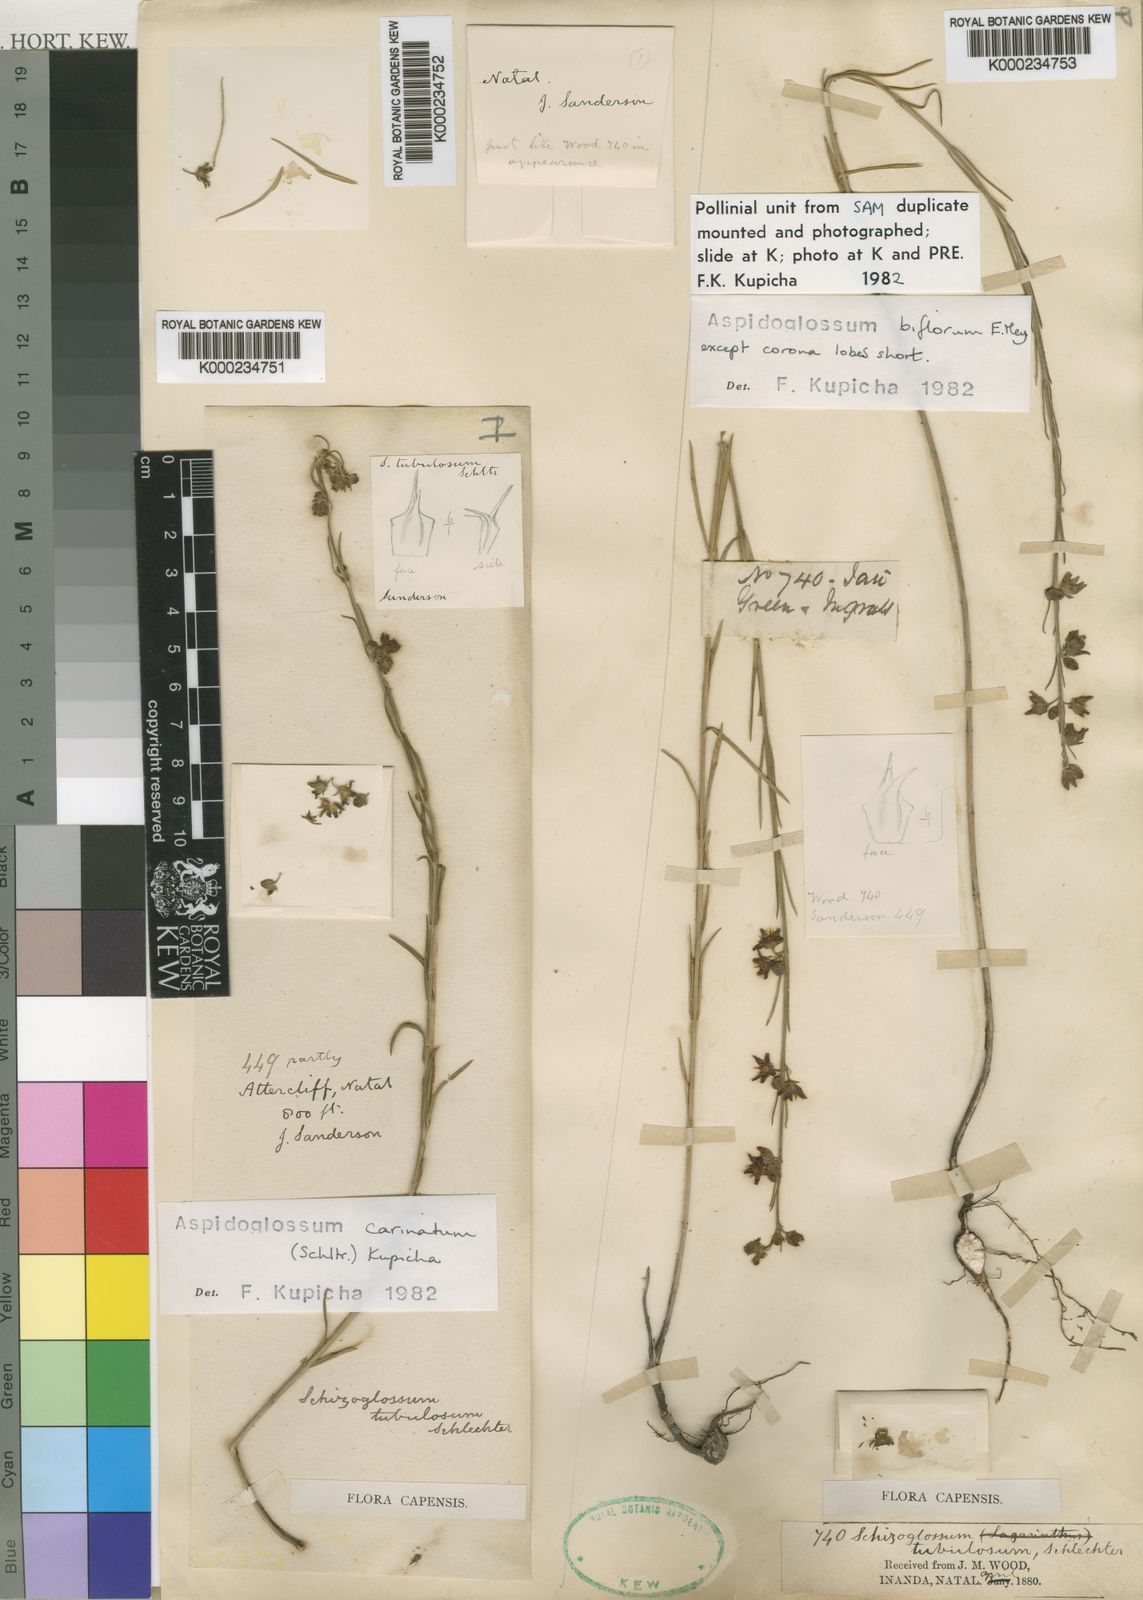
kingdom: Plantae
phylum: Tracheophyta
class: Magnoliopsida
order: Gentianales
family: Apocynaceae
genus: Aspidoglossum
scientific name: Aspidoglossum biflorum
